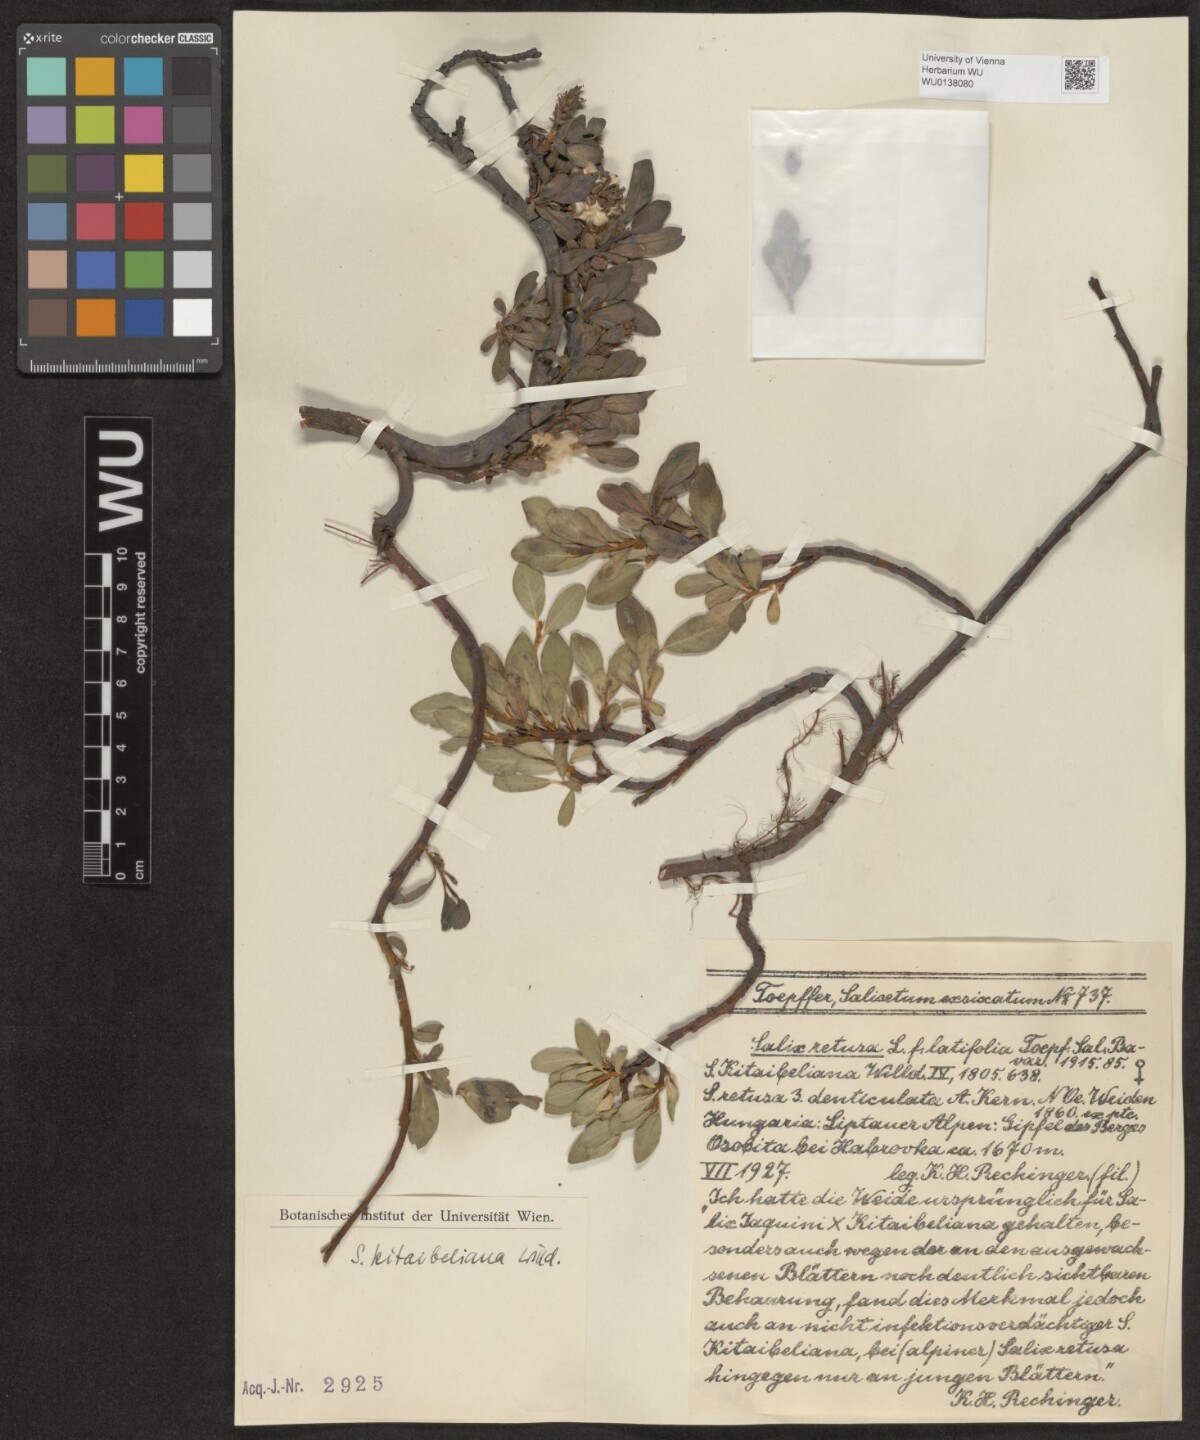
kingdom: Plantae
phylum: Tracheophyta
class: Magnoliopsida
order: Malpighiales
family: Salicaceae
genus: Salix
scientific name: Salix retusa
